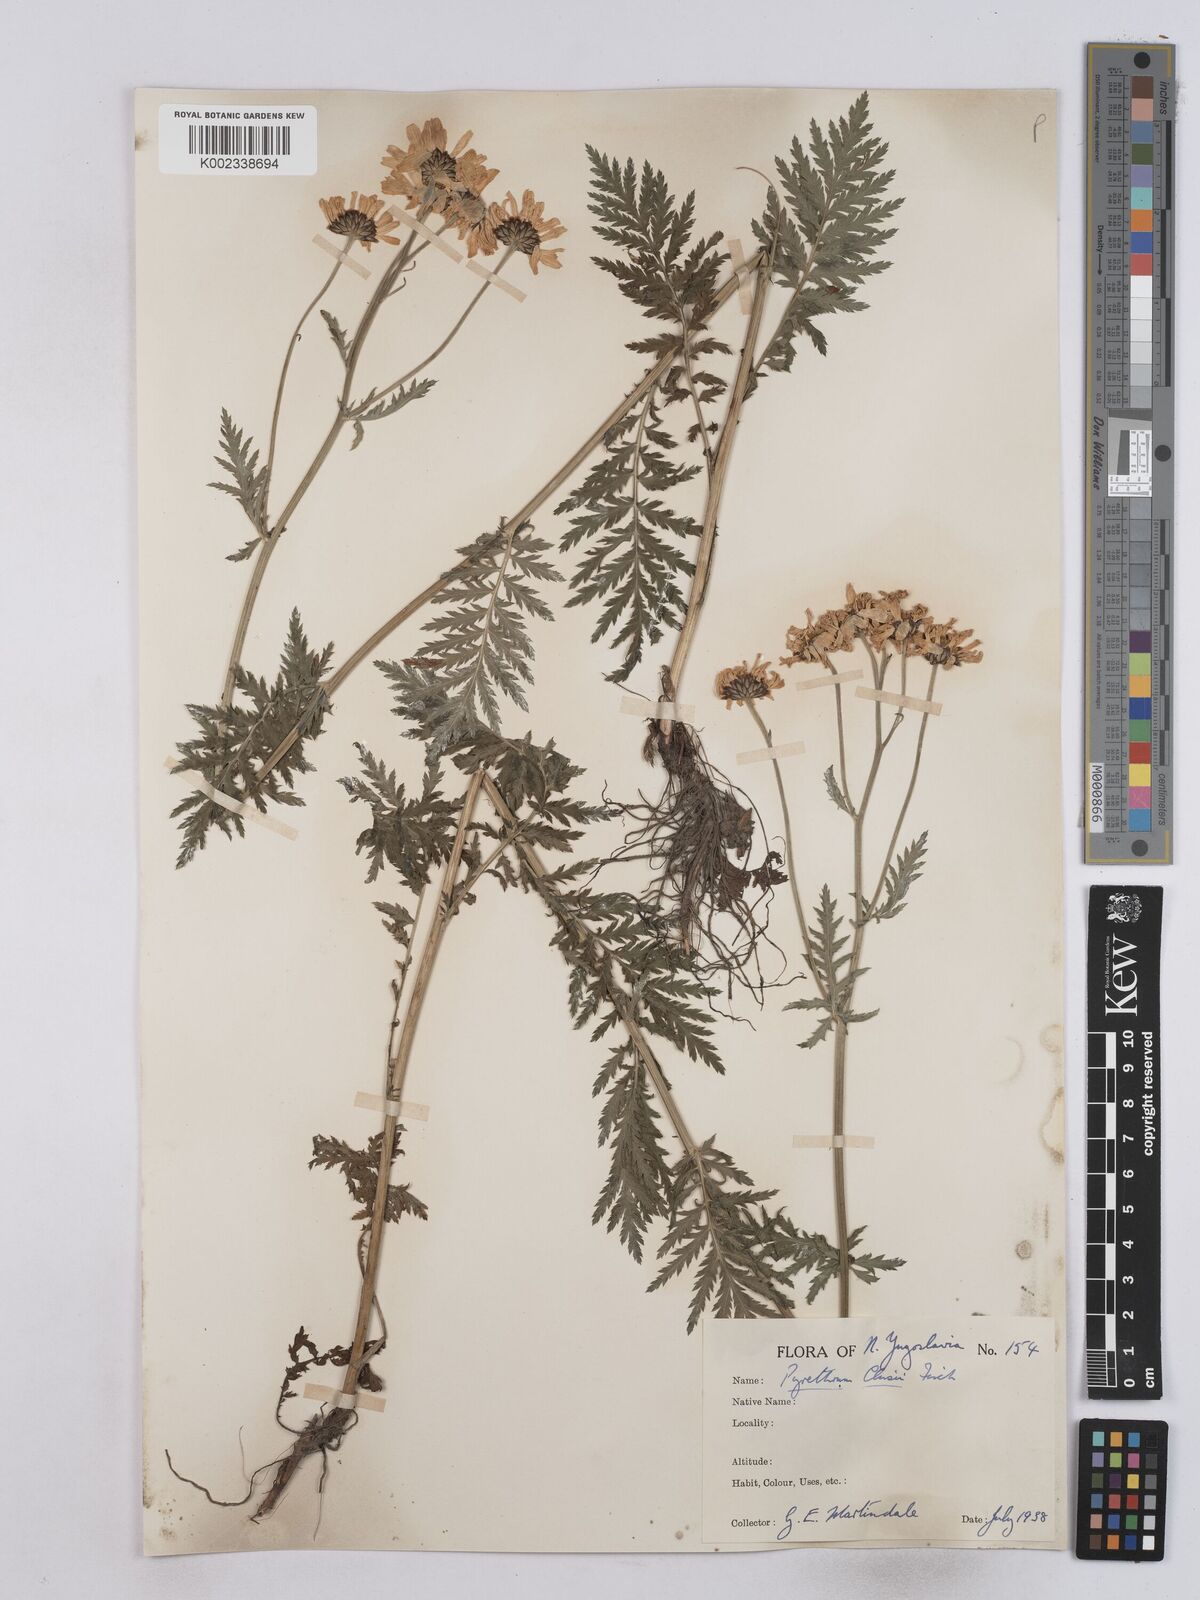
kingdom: Plantae
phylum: Tracheophyta
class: Magnoliopsida
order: Asterales
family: Asteraceae
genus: Tanacetum
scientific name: Tanacetum corymbosum
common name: Scentless feverfew
